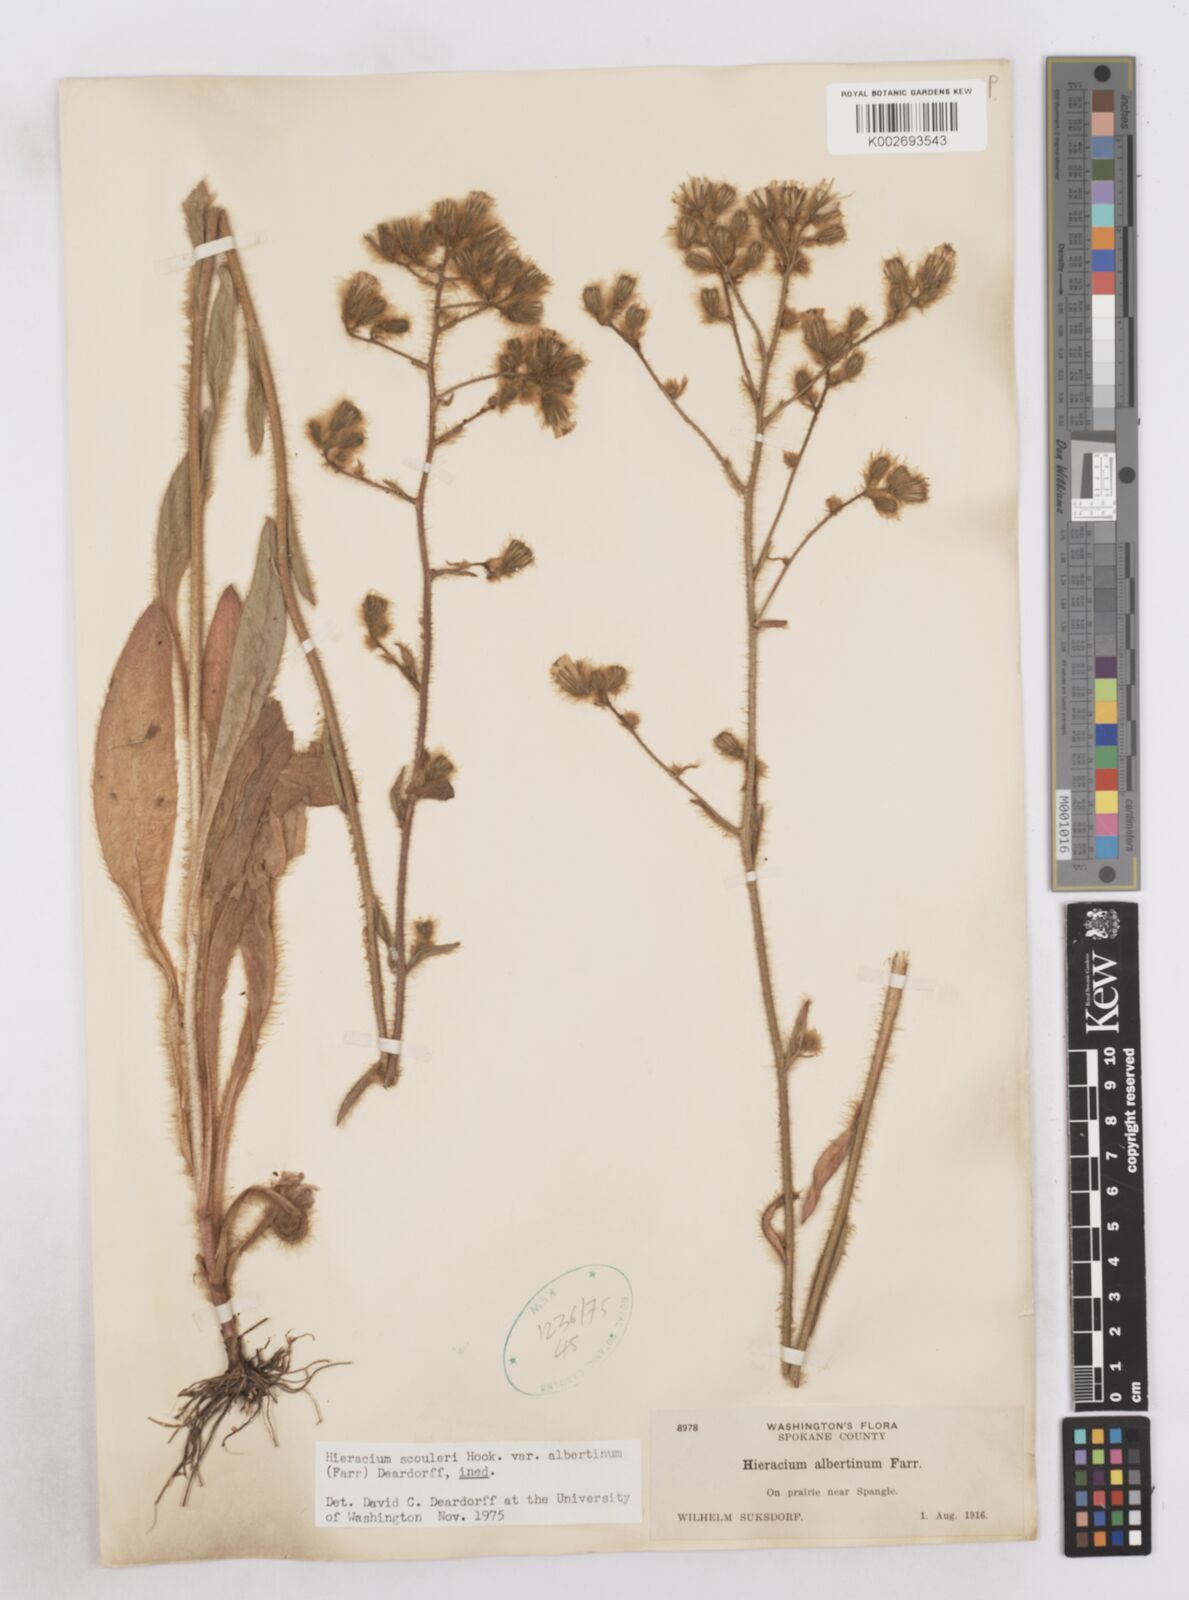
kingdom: Plantae
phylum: Tracheophyta
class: Magnoliopsida
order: Asterales
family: Asteraceae
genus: Hieracium
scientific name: Hieracium scouleri
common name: Hound's-tongue hawkweed
